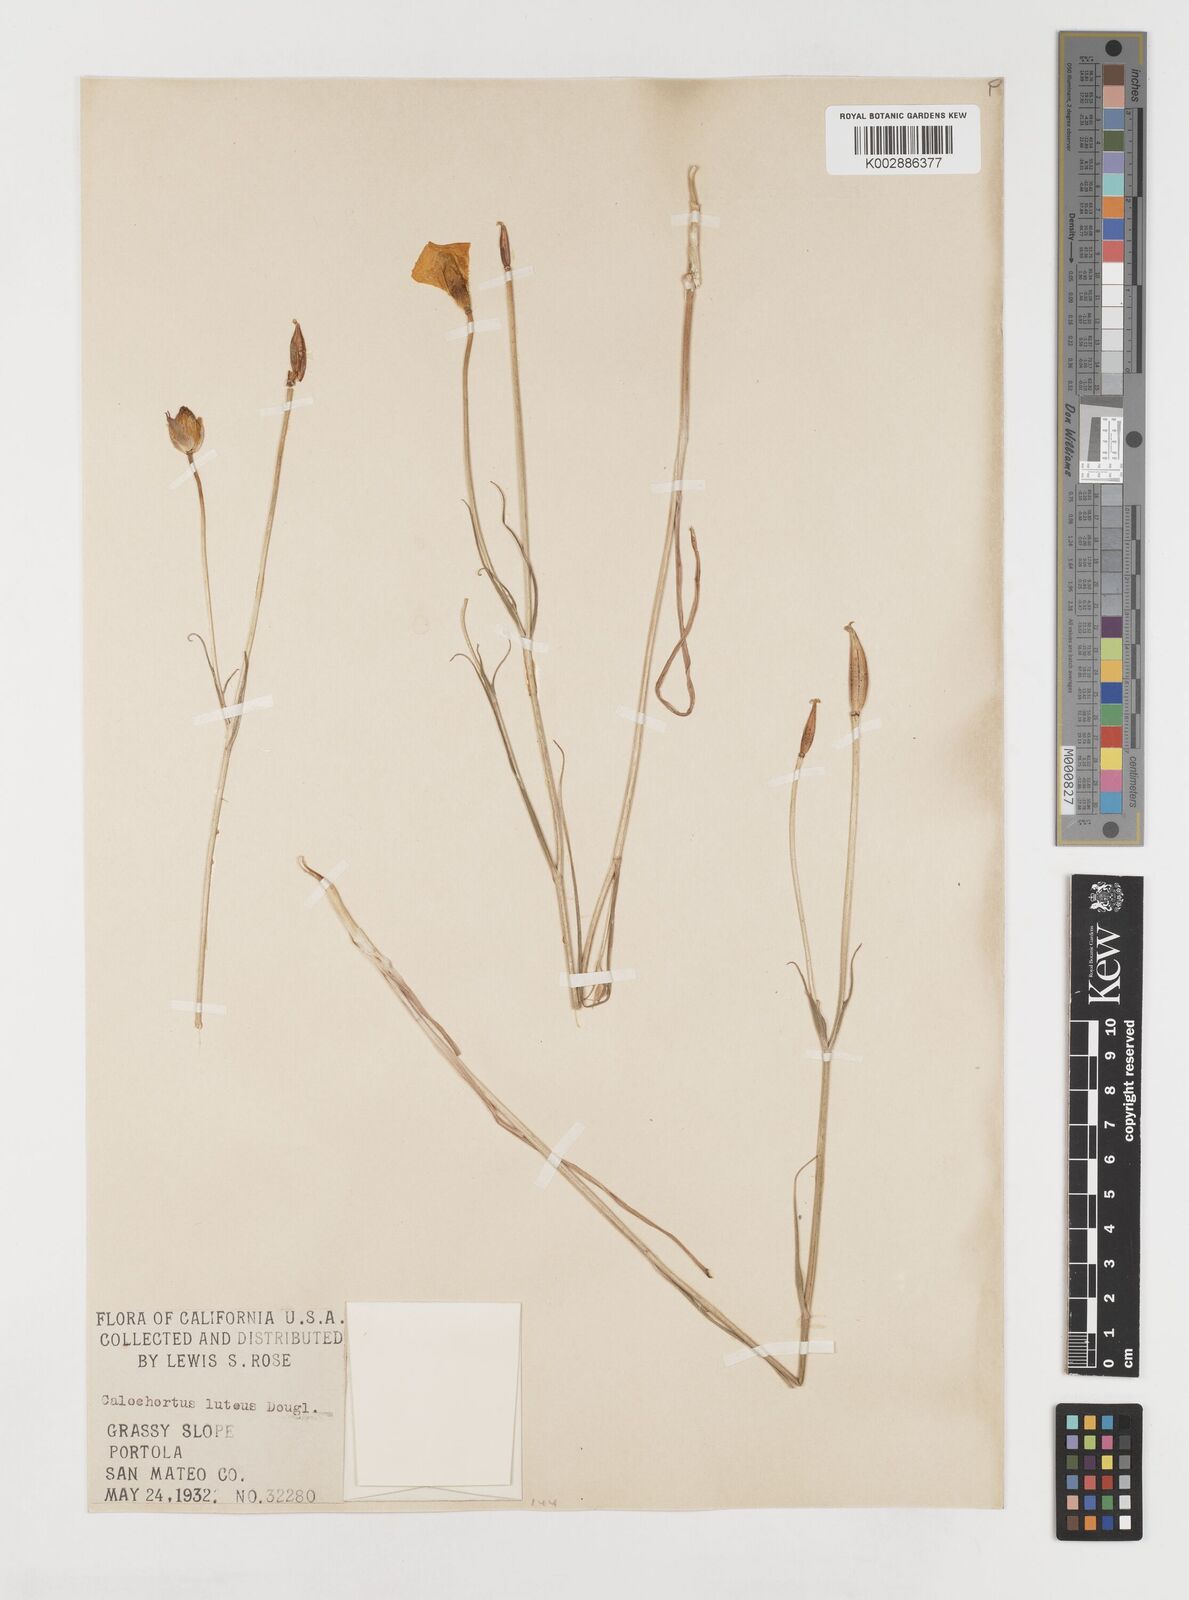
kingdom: Plantae
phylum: Tracheophyta
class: Liliopsida
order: Liliales
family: Liliaceae
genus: Calochortus
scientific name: Calochortus nuttallii
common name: Sego-lily
